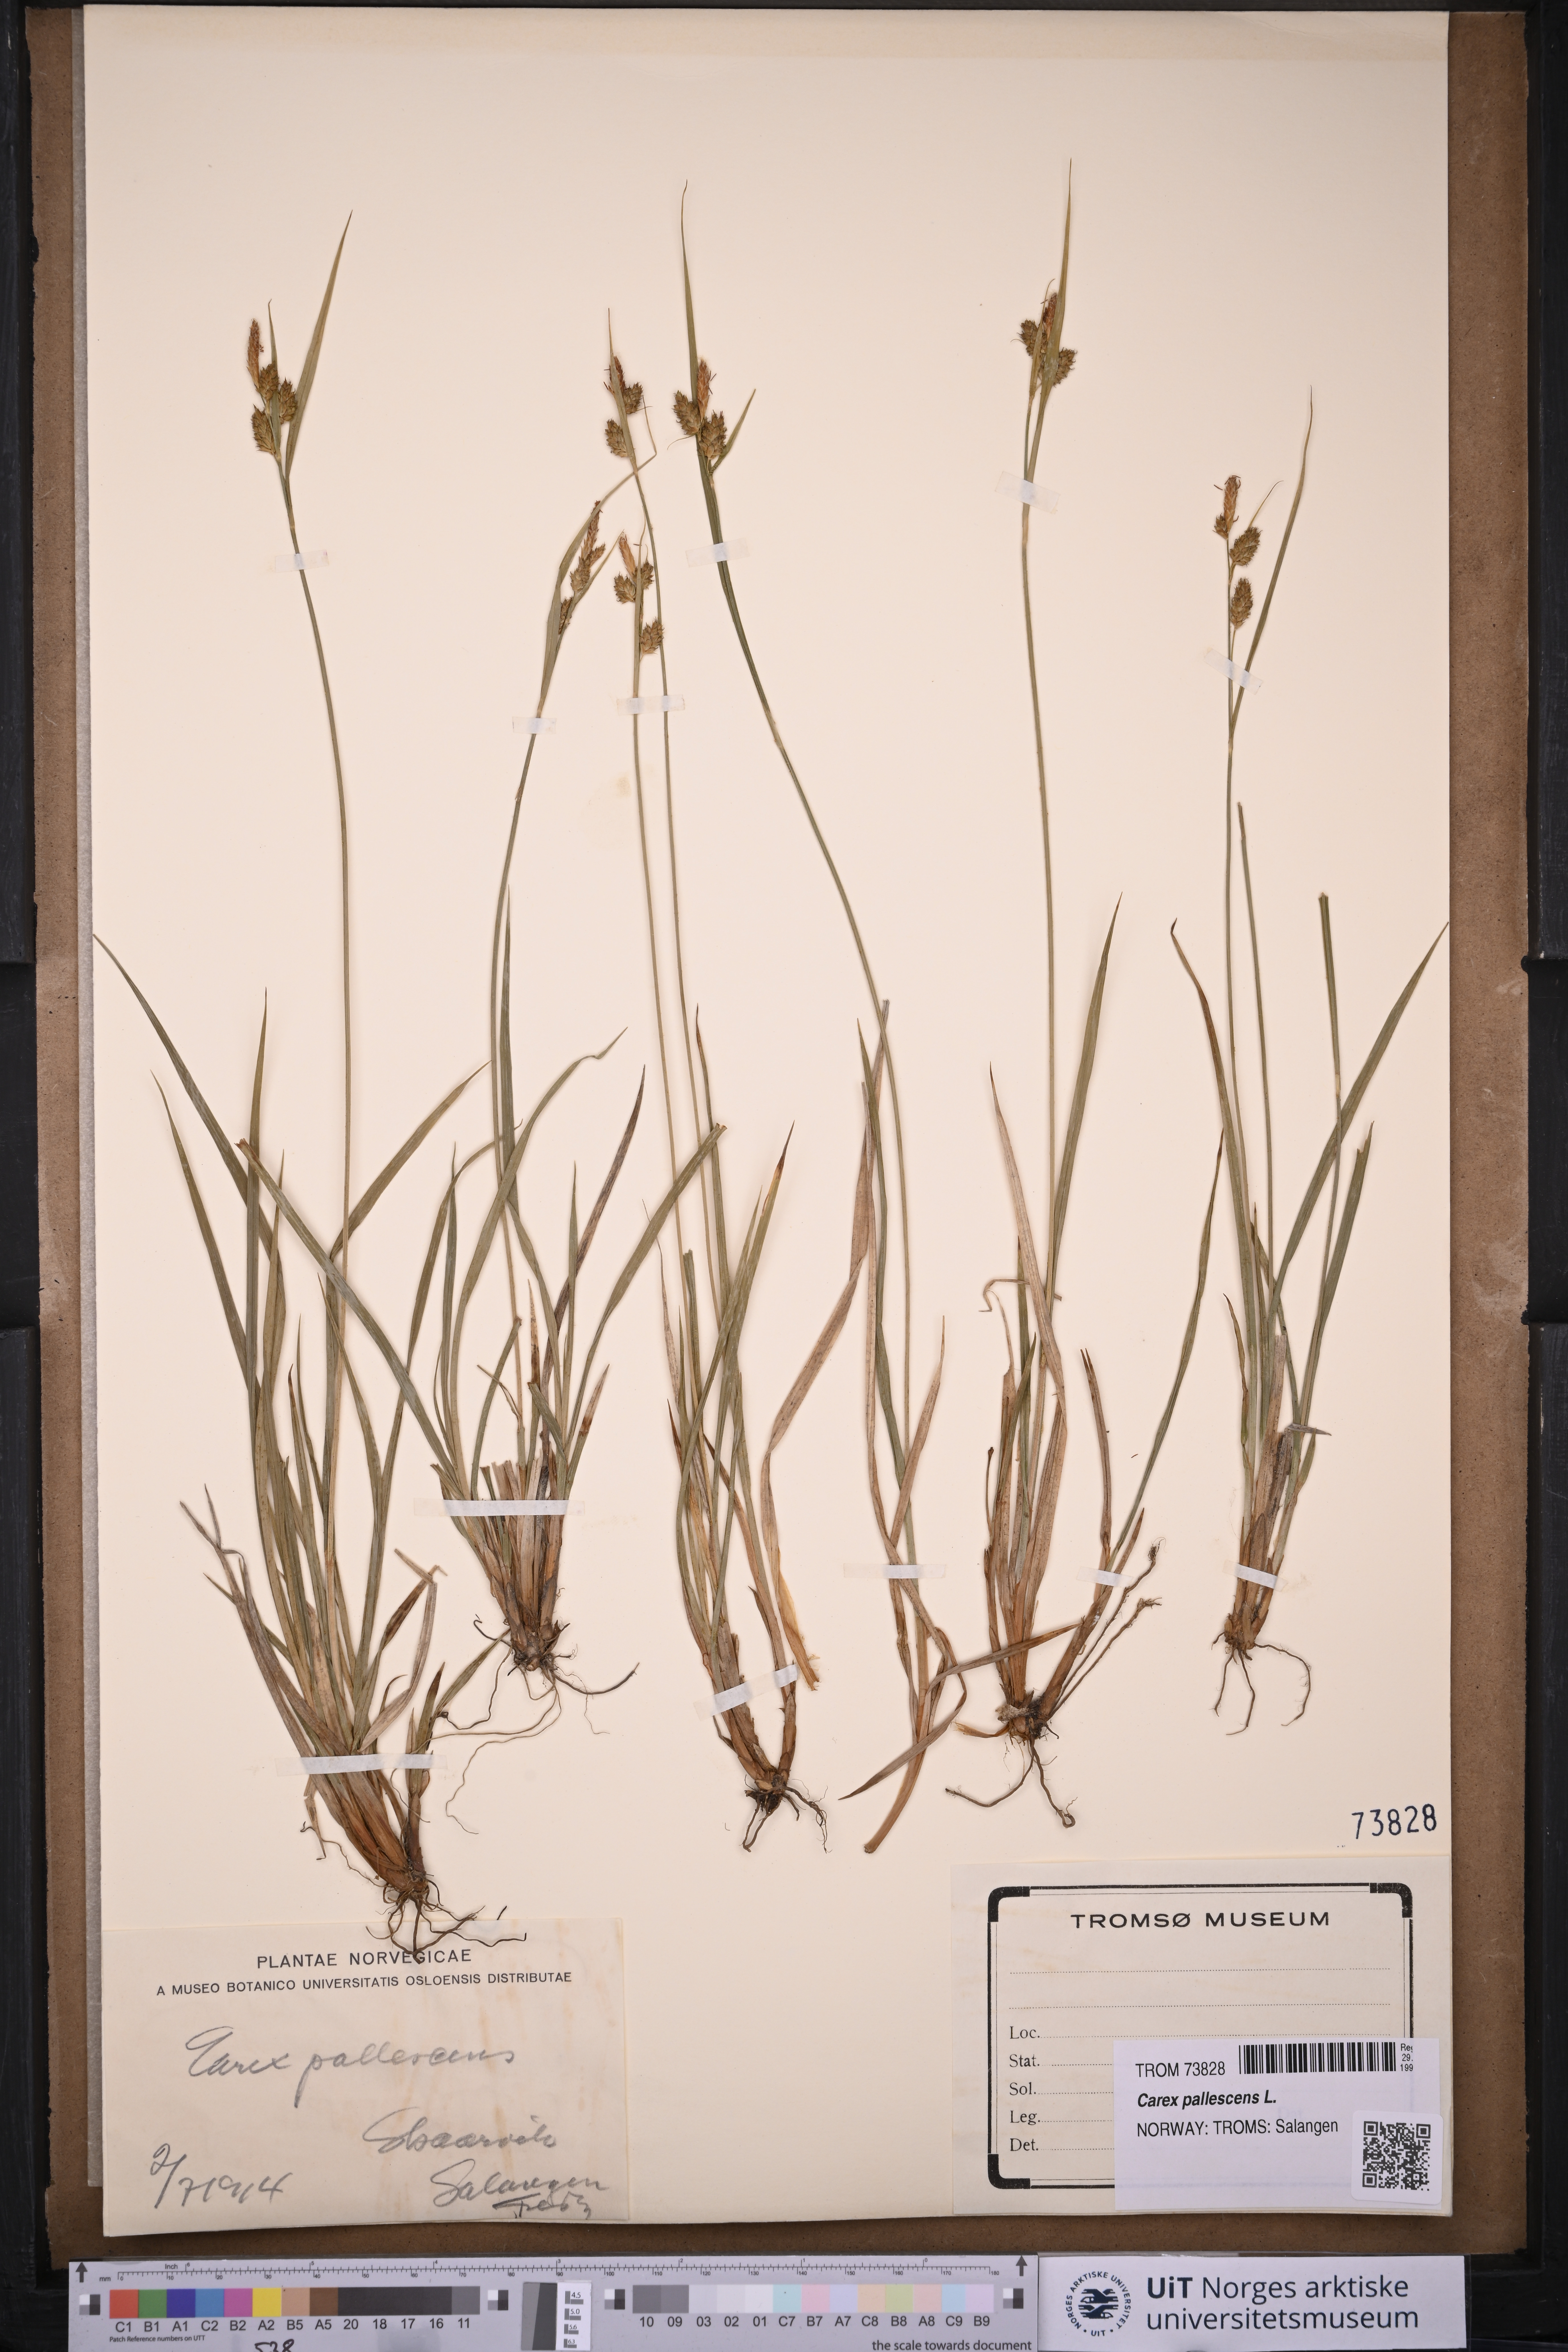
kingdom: Plantae
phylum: Tracheophyta
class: Liliopsida
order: Poales
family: Cyperaceae
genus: Carex
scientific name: Carex pallescens
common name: Pale sedge
